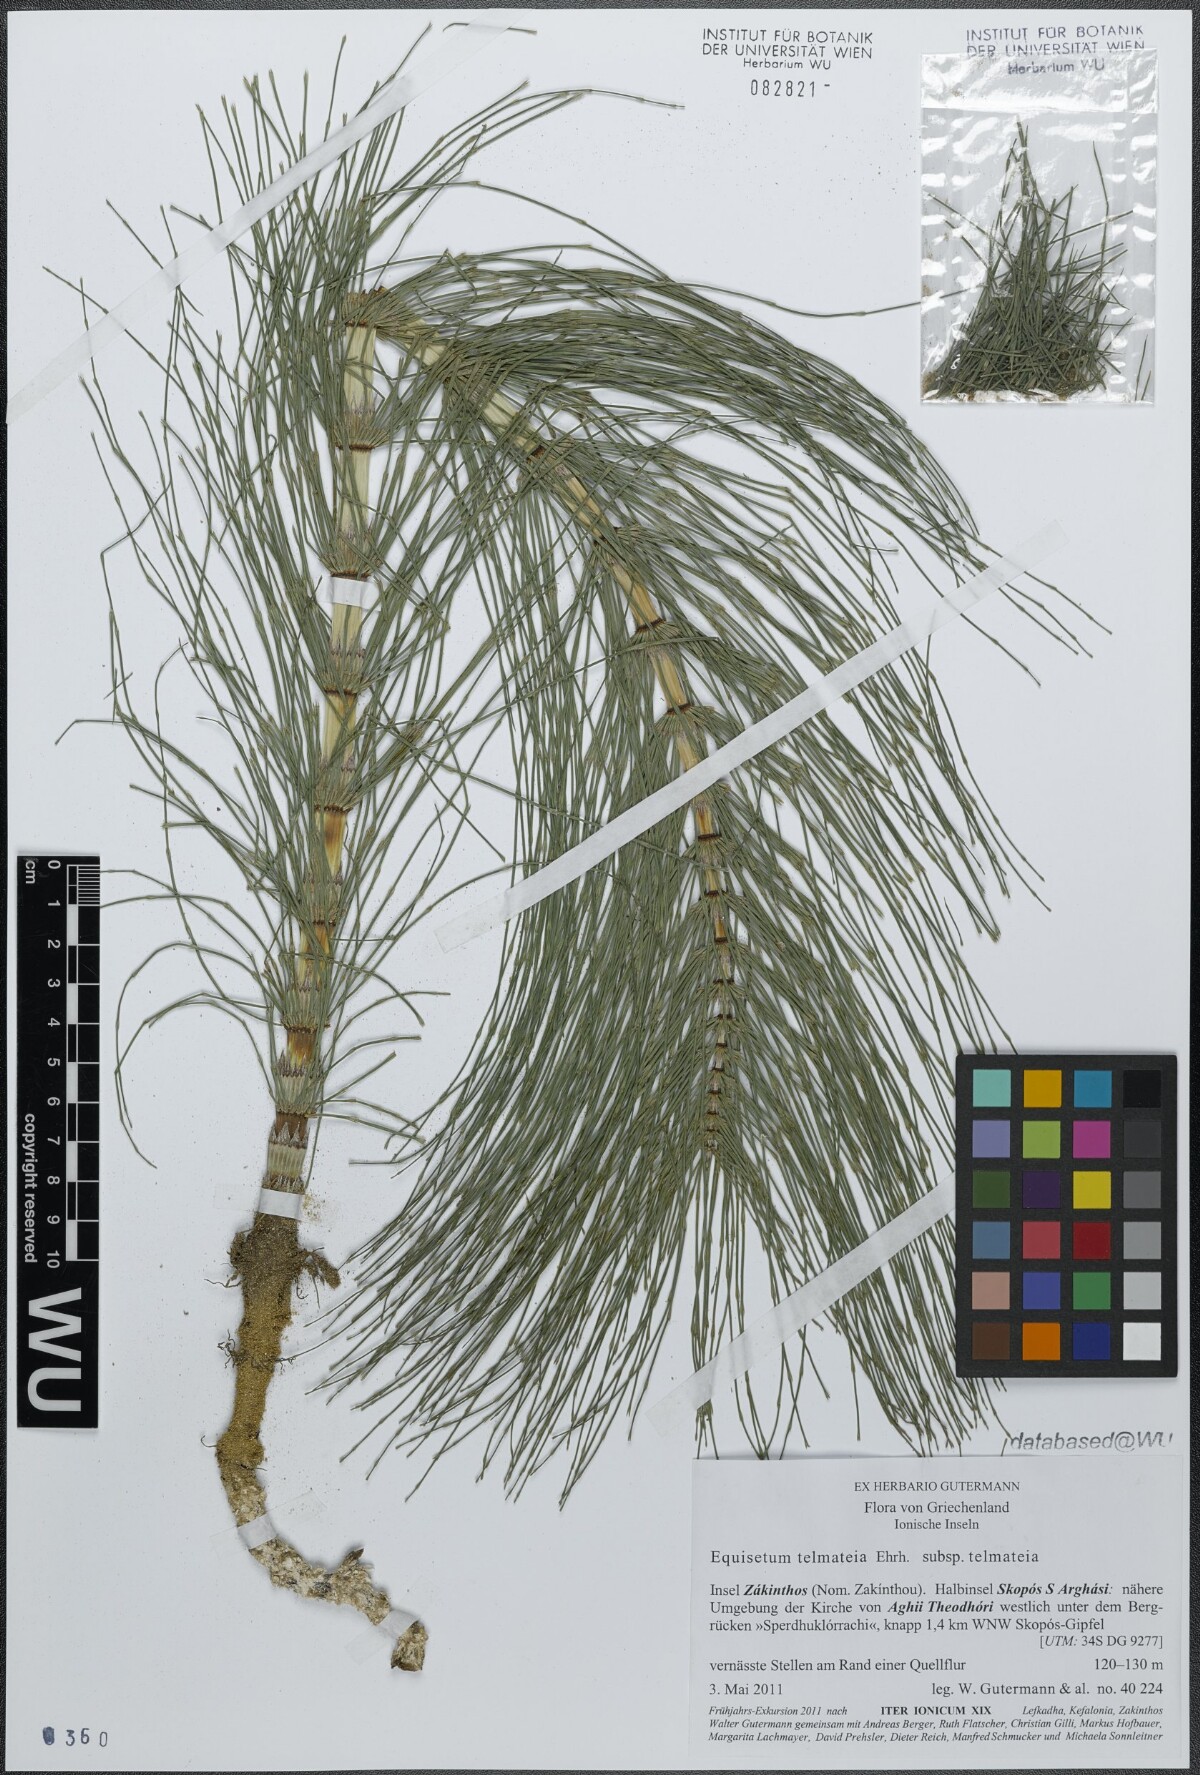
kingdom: Plantae
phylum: Tracheophyta
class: Polypodiopsida
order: Equisetales
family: Equisetaceae
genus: Equisetum
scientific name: Equisetum telmateia
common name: Great horsetail
